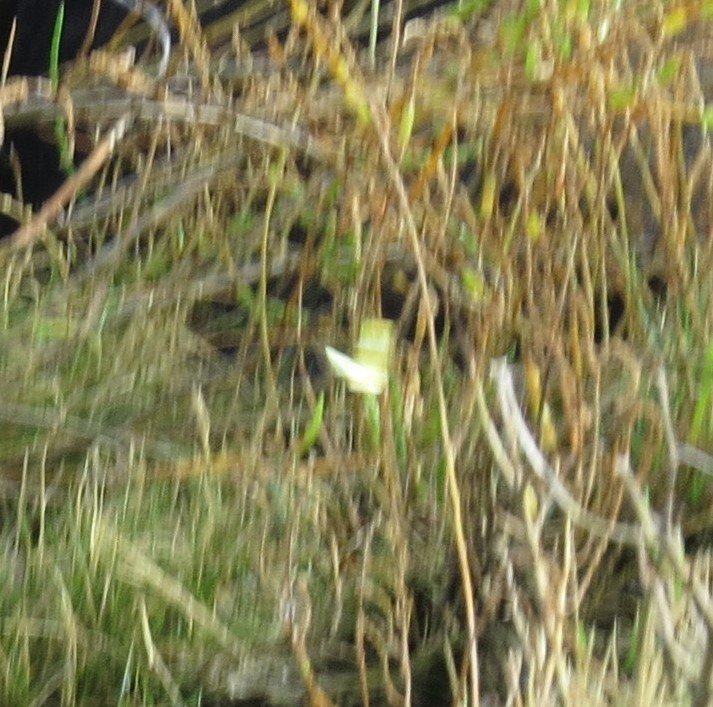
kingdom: Animalia
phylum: Arthropoda
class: Insecta
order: Lepidoptera
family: Pieridae
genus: Pyrisitia
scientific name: Pyrisitia lisa
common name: Little Yellow
